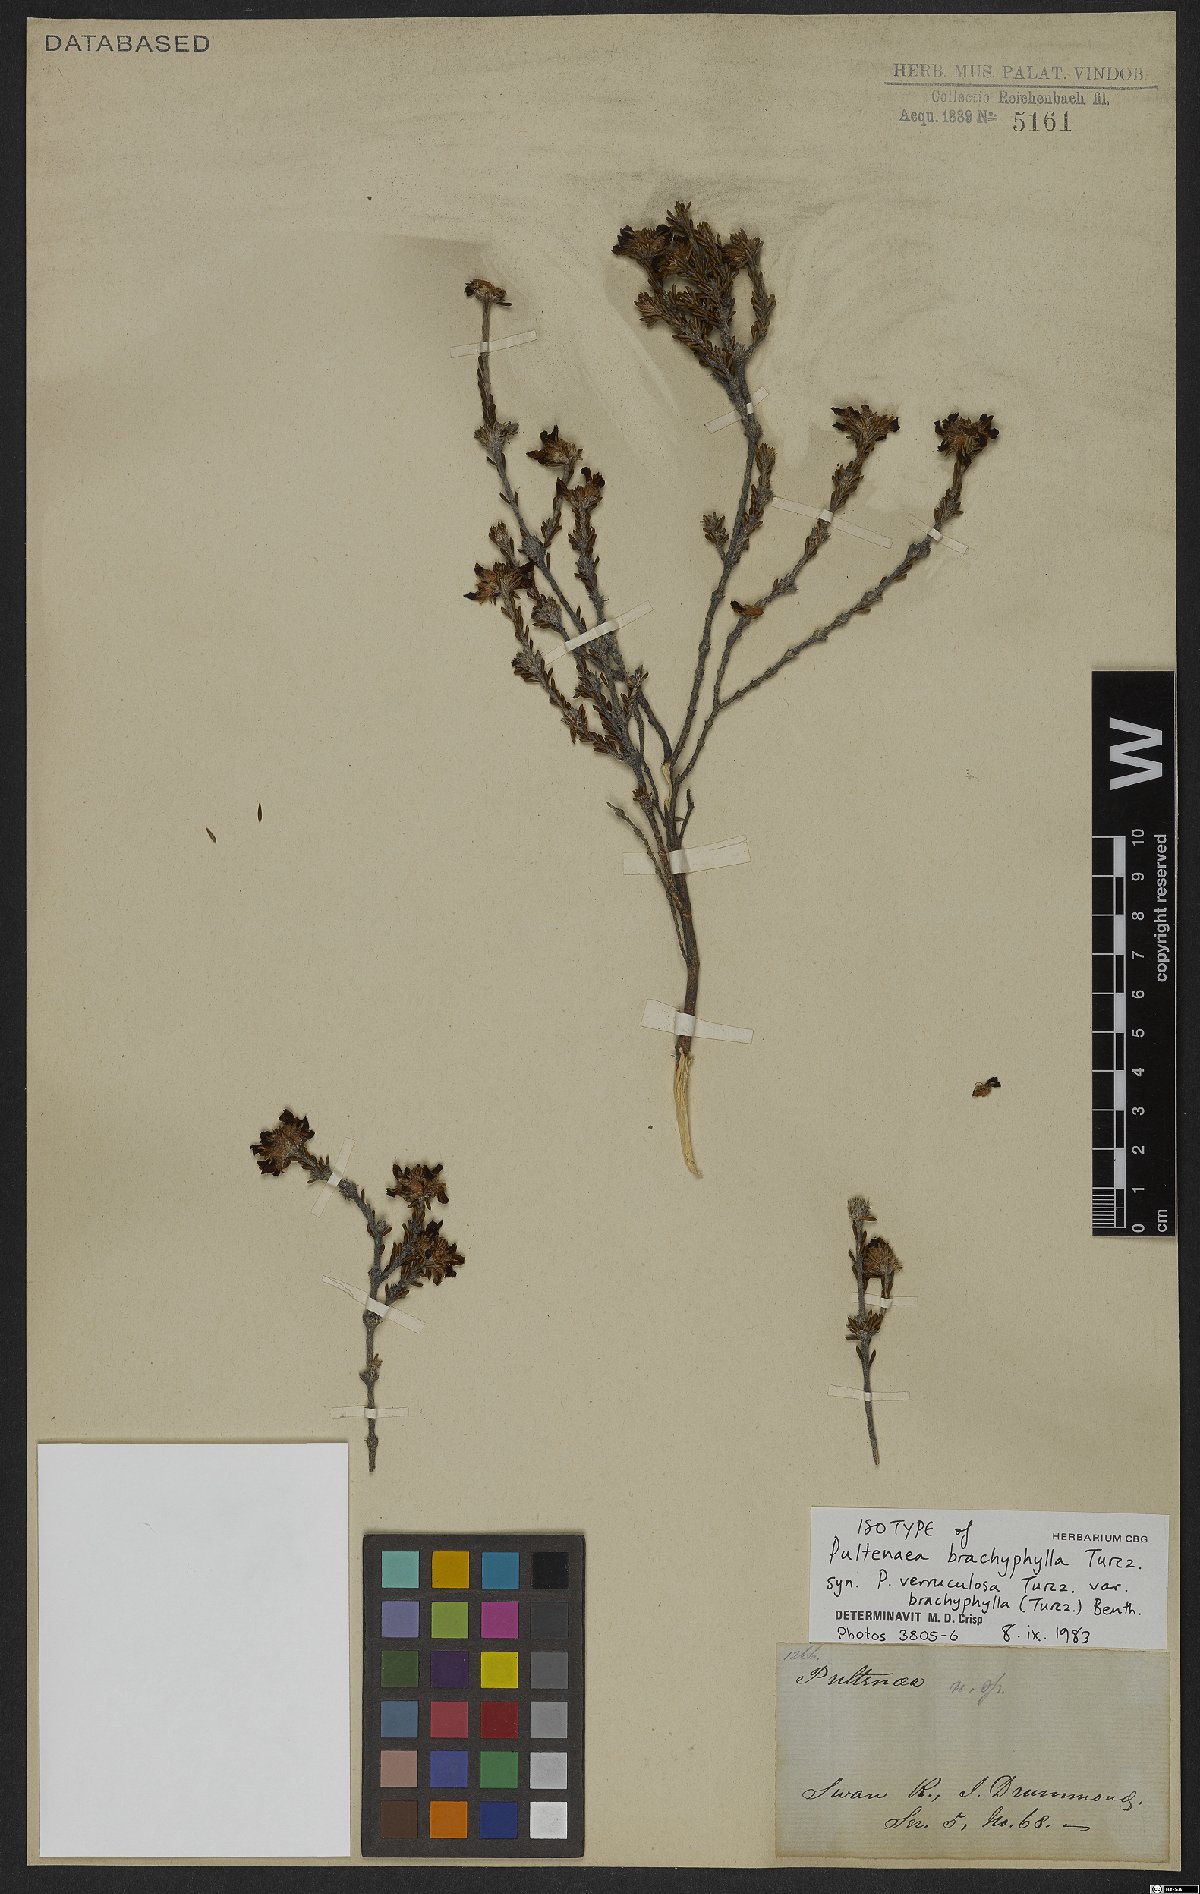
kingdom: Plantae
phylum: Tracheophyta
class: Magnoliopsida
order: Fabales
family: Fabaceae
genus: Pultenaea
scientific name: Pultenaea brachyphylla
